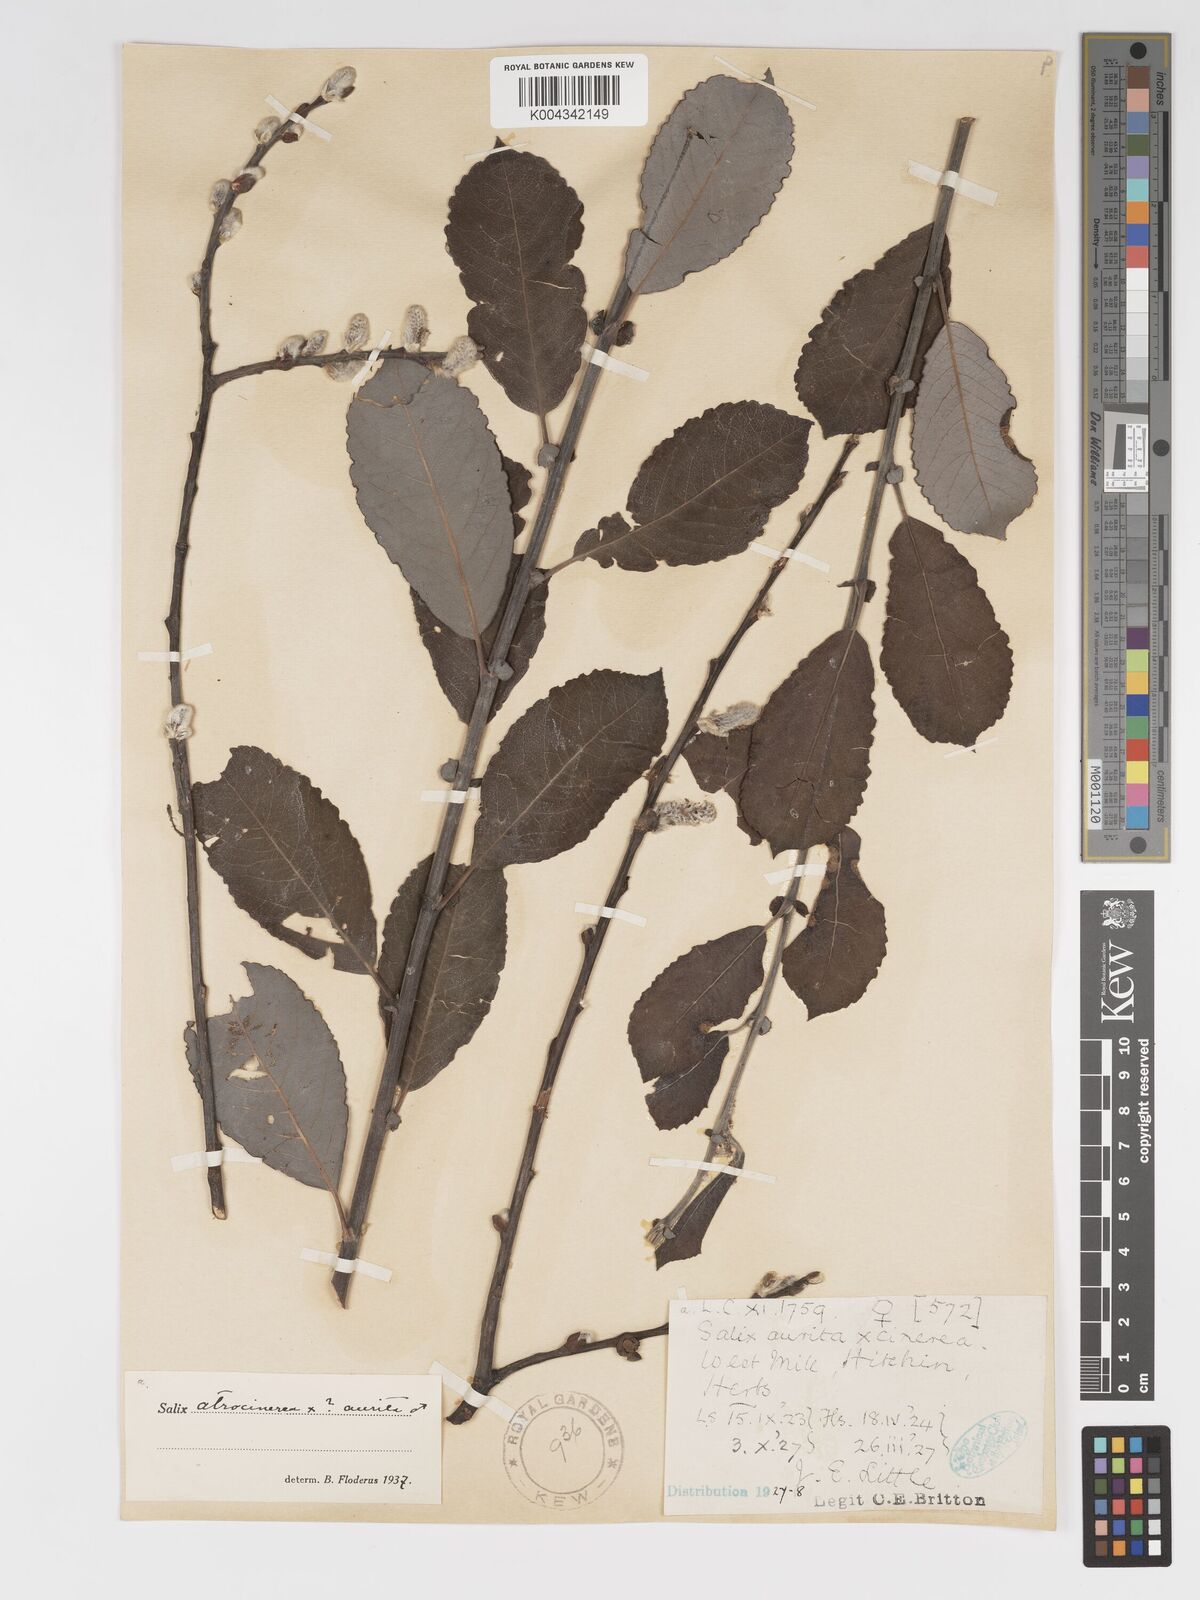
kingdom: Plantae
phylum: Tracheophyta
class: Magnoliopsida
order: Malpighiales
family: Salicaceae
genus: Salix
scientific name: Salix
